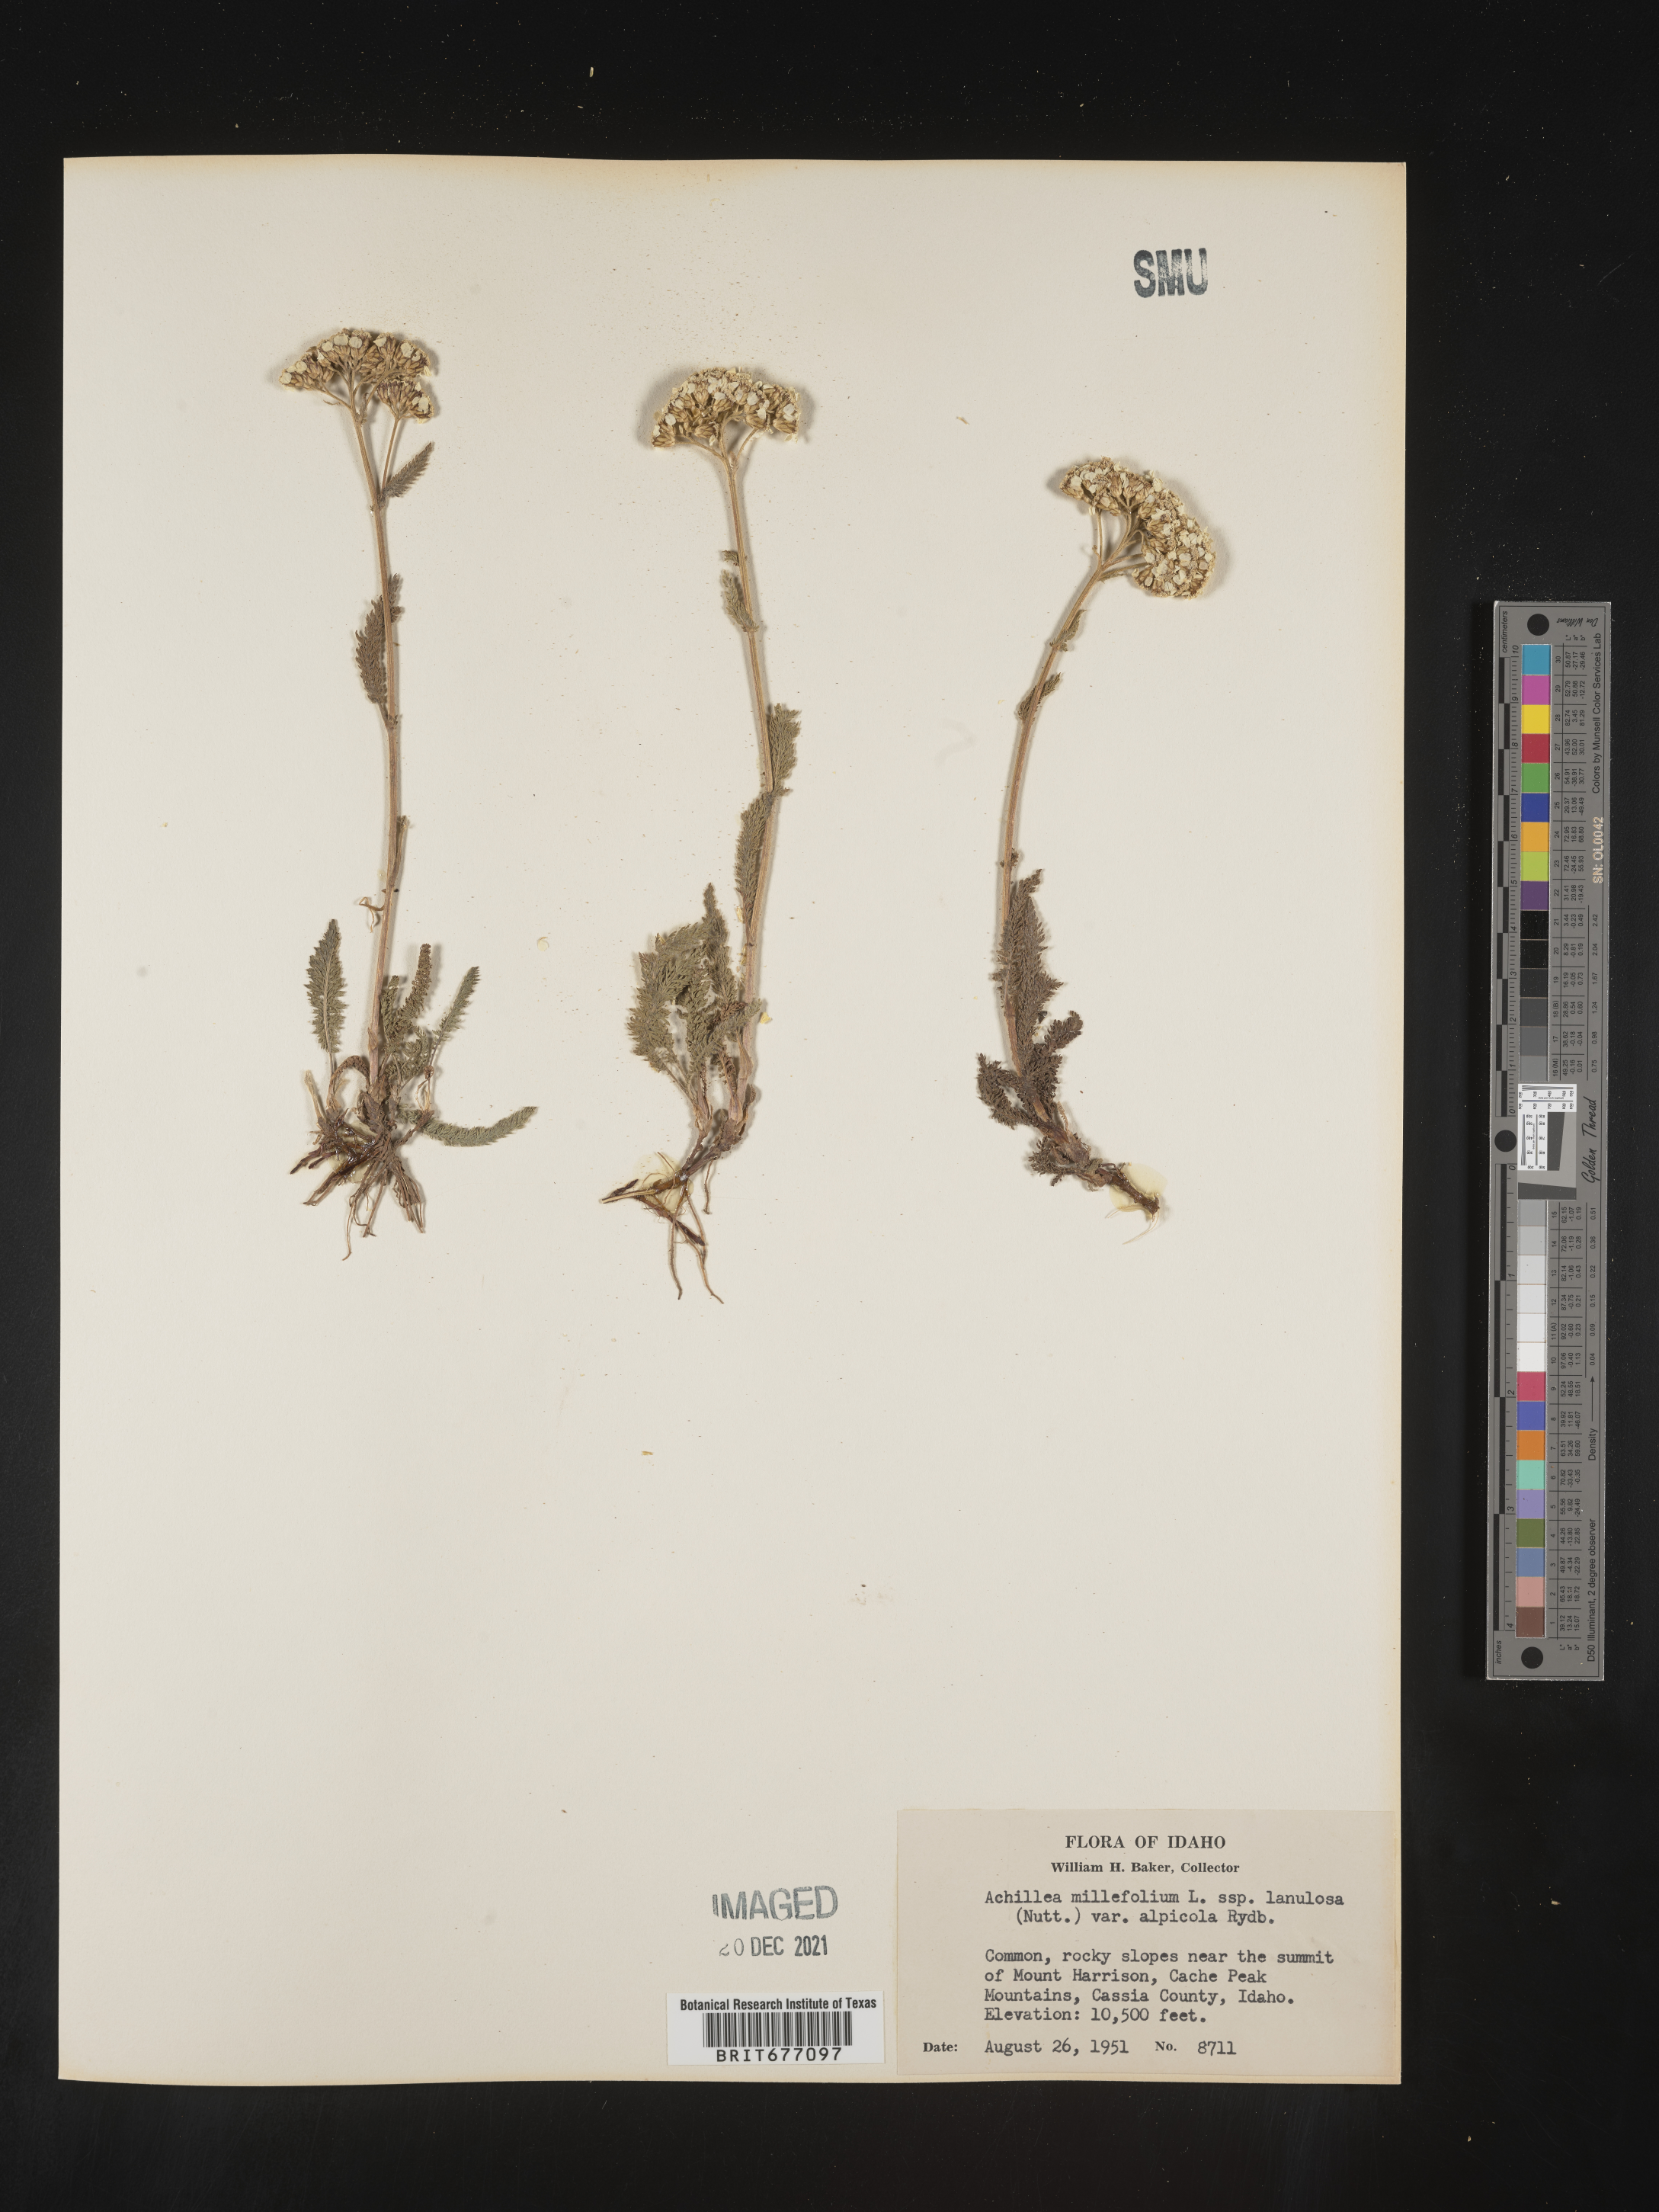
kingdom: Plantae
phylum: Tracheophyta
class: Magnoliopsida
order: Asterales
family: Asteraceae
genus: Achillea
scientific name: Achillea millefolium
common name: Yarrow
